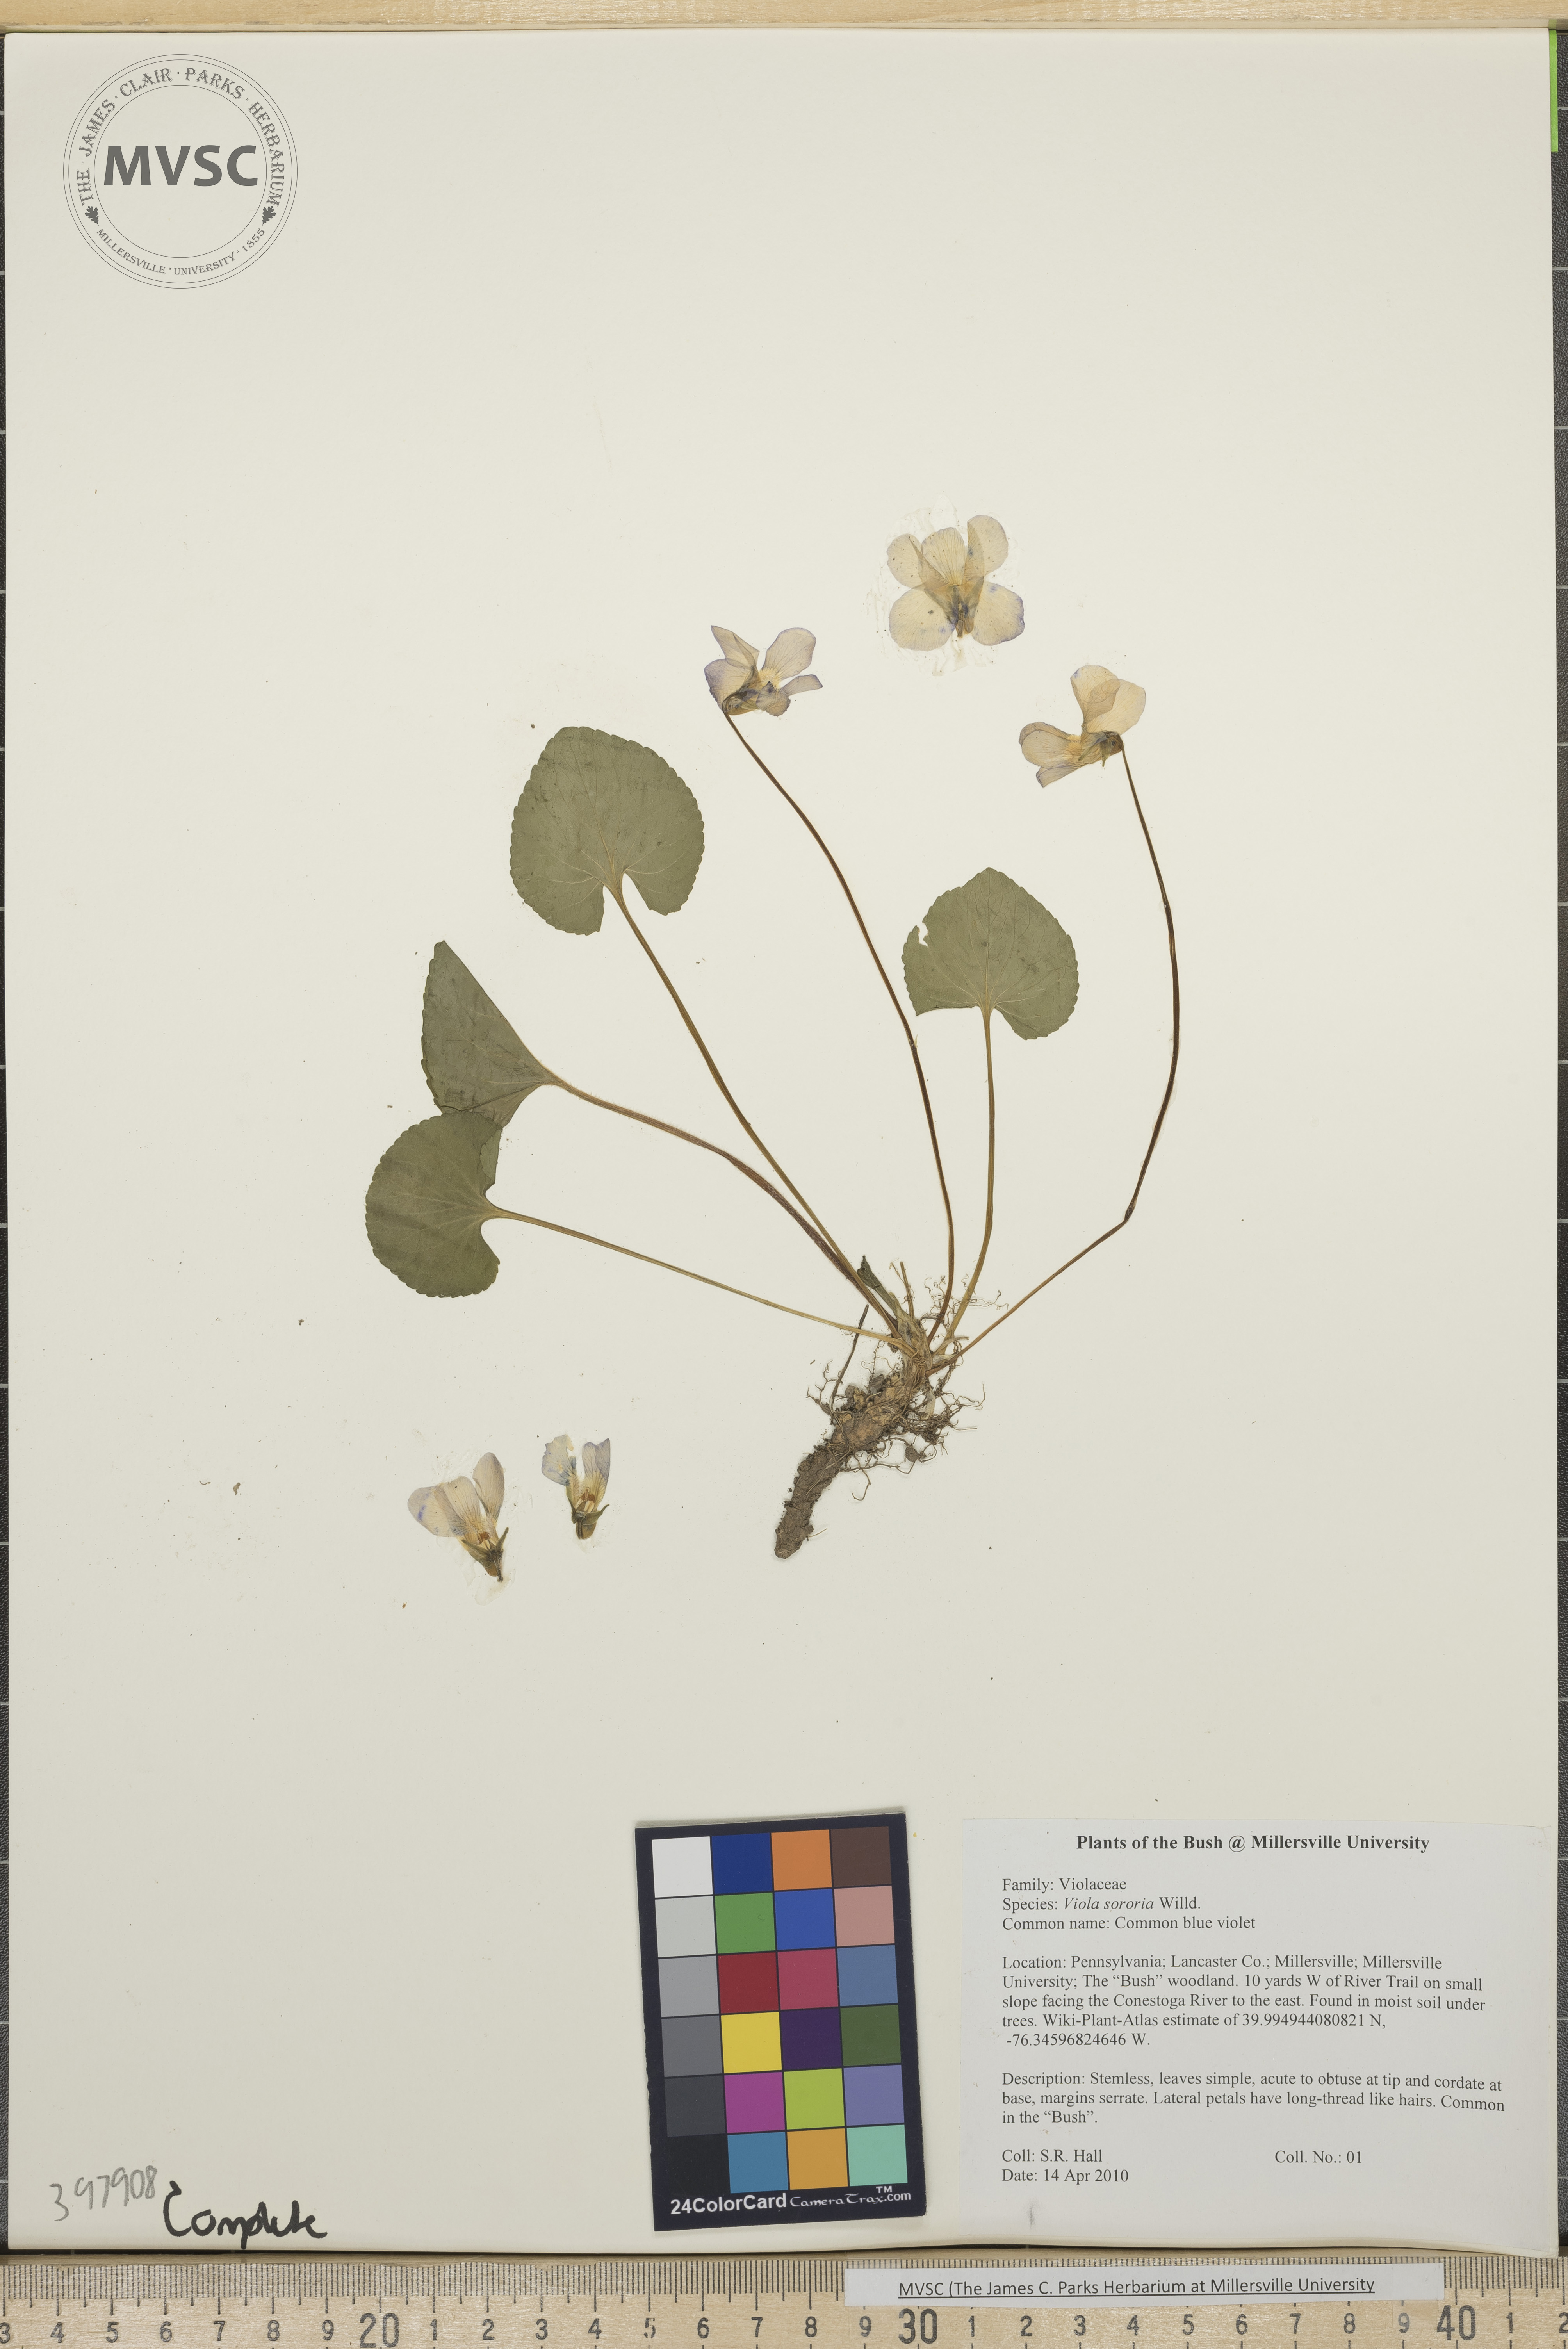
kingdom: Plantae
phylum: Tracheophyta
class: Magnoliopsida
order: Malpighiales
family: Violaceae
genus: Viola
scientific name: Viola sororia
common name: Common blue violet
